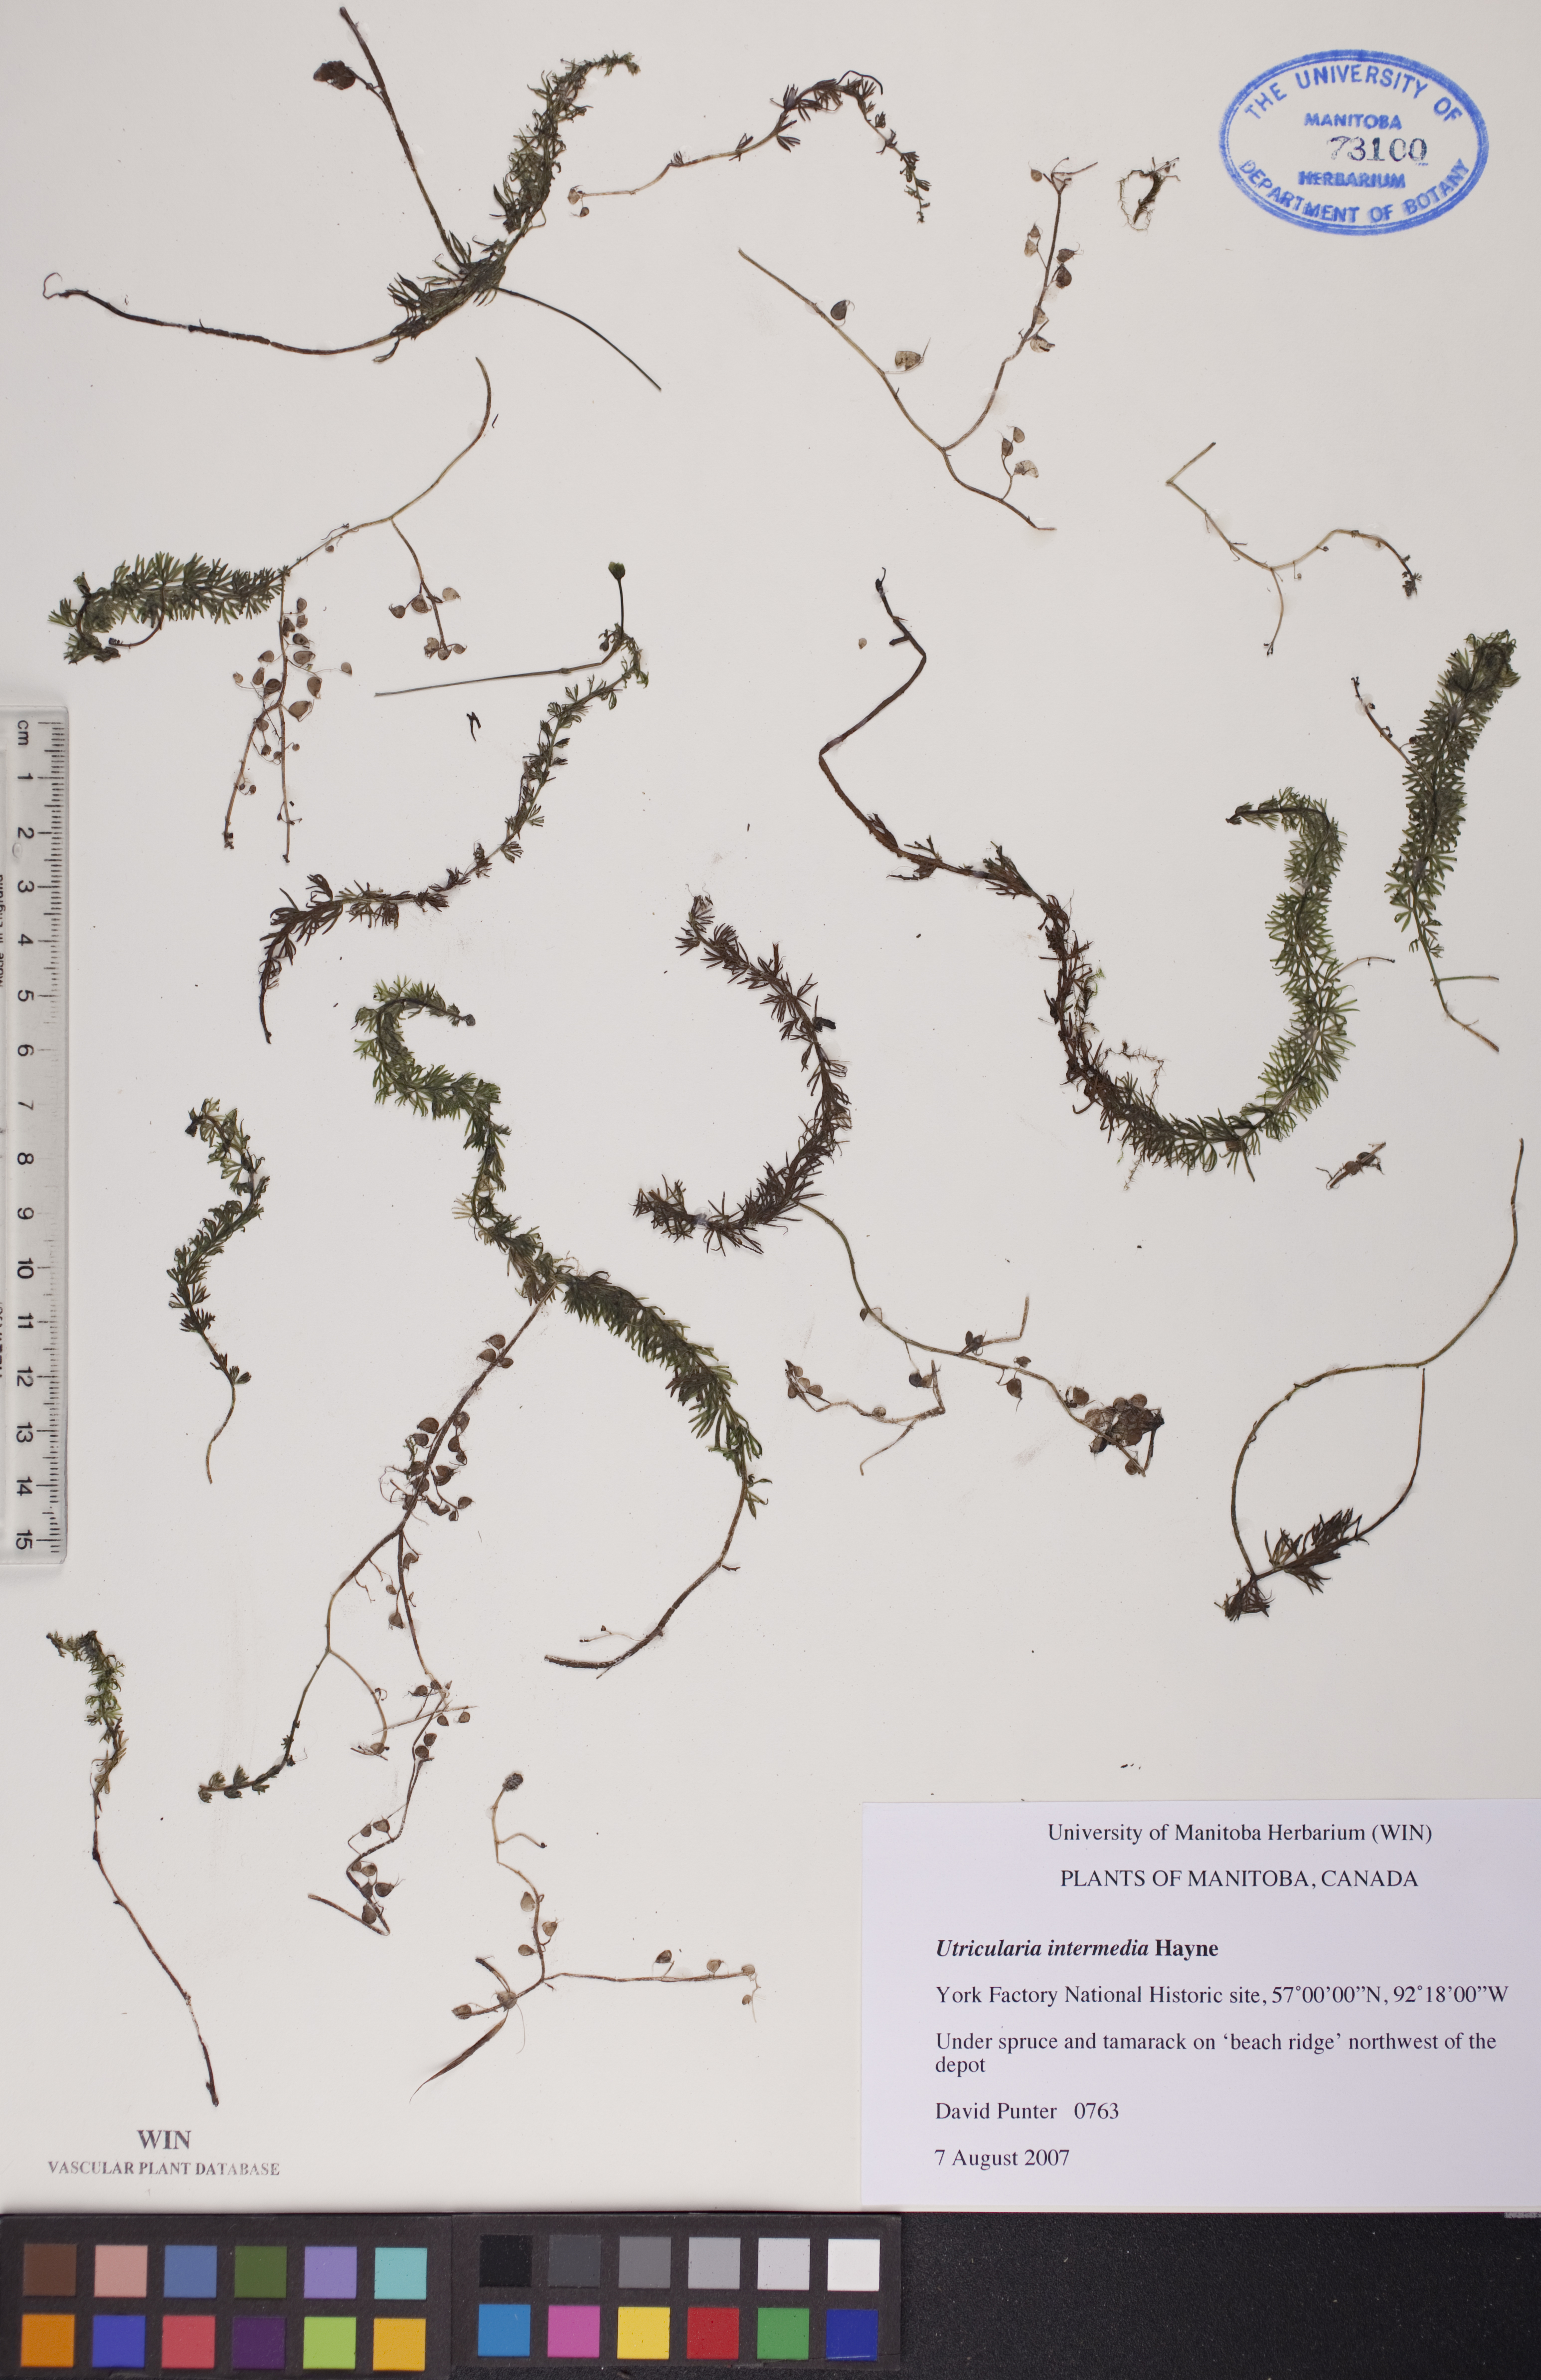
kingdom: Plantae
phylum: Tracheophyta
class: Magnoliopsida
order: Lamiales
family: Lentibulariaceae
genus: Utricularia
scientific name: Utricularia intermedia
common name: Intermediate bladderwort
